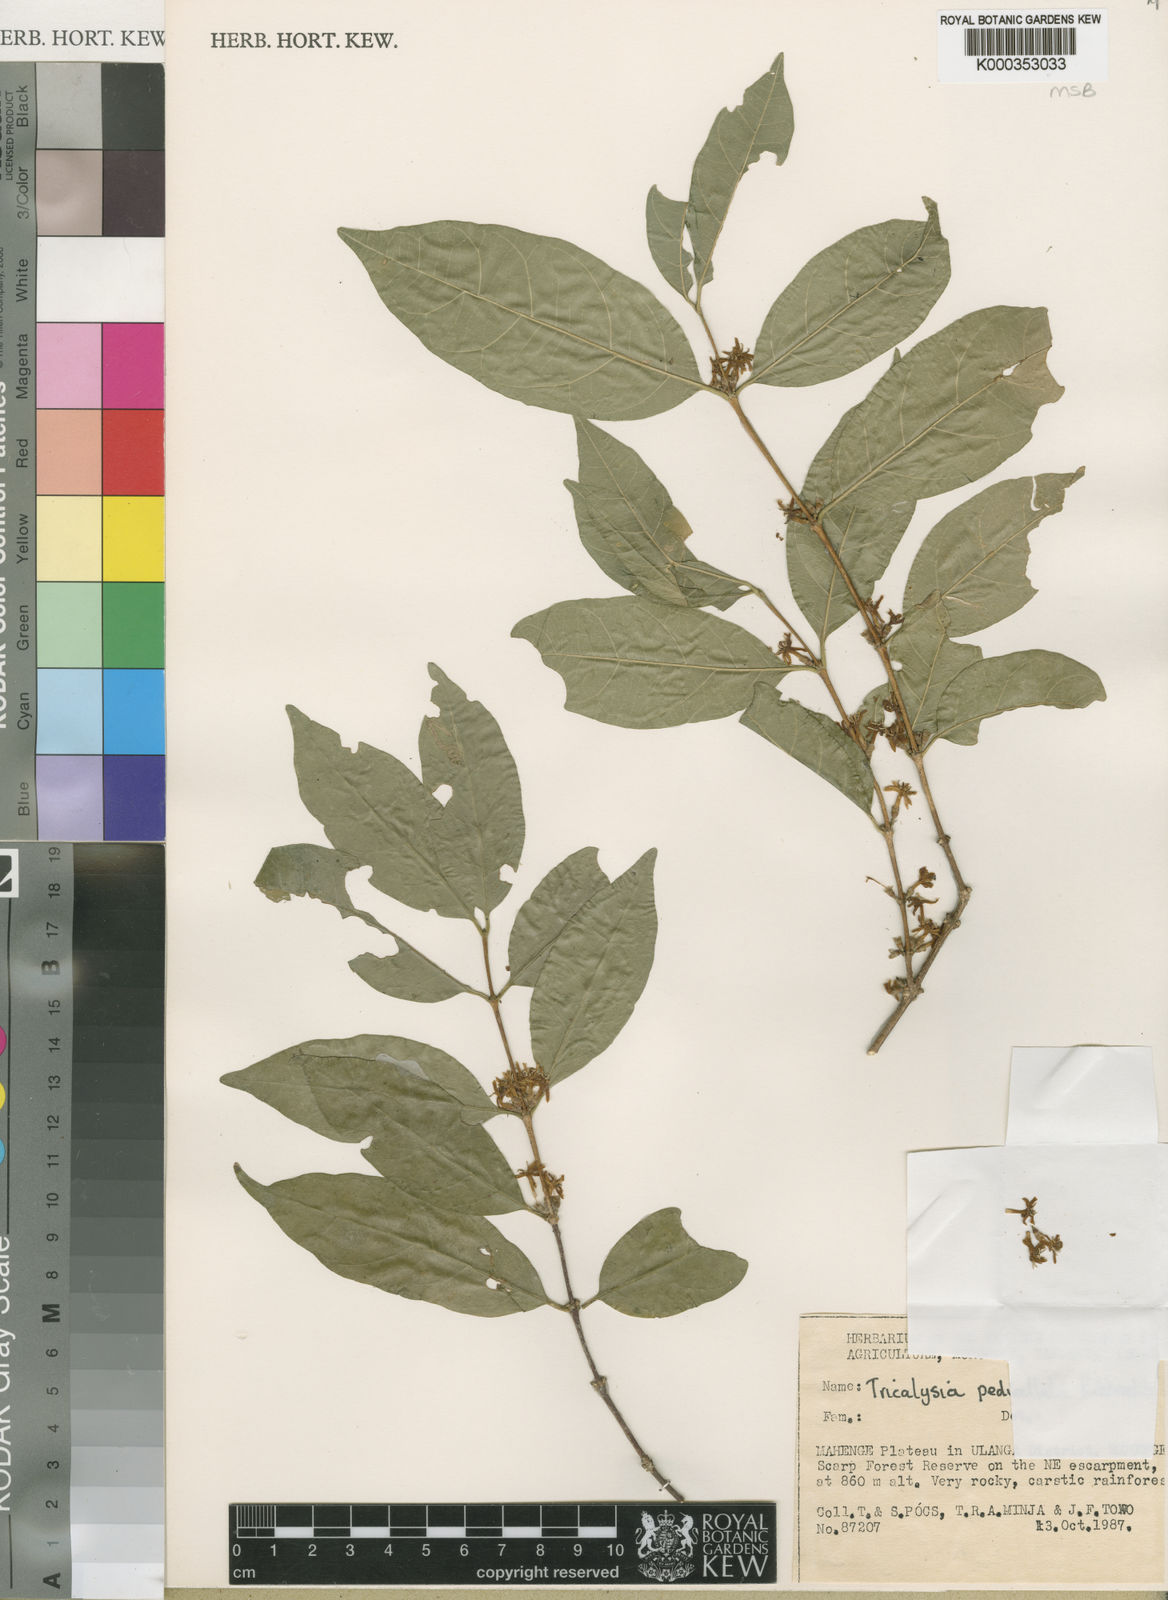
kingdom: Plantae
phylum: Tracheophyta
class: Magnoliopsida
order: Gentianales
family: Rubiaceae
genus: Tricalysia
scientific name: Tricalysia pedicellata
